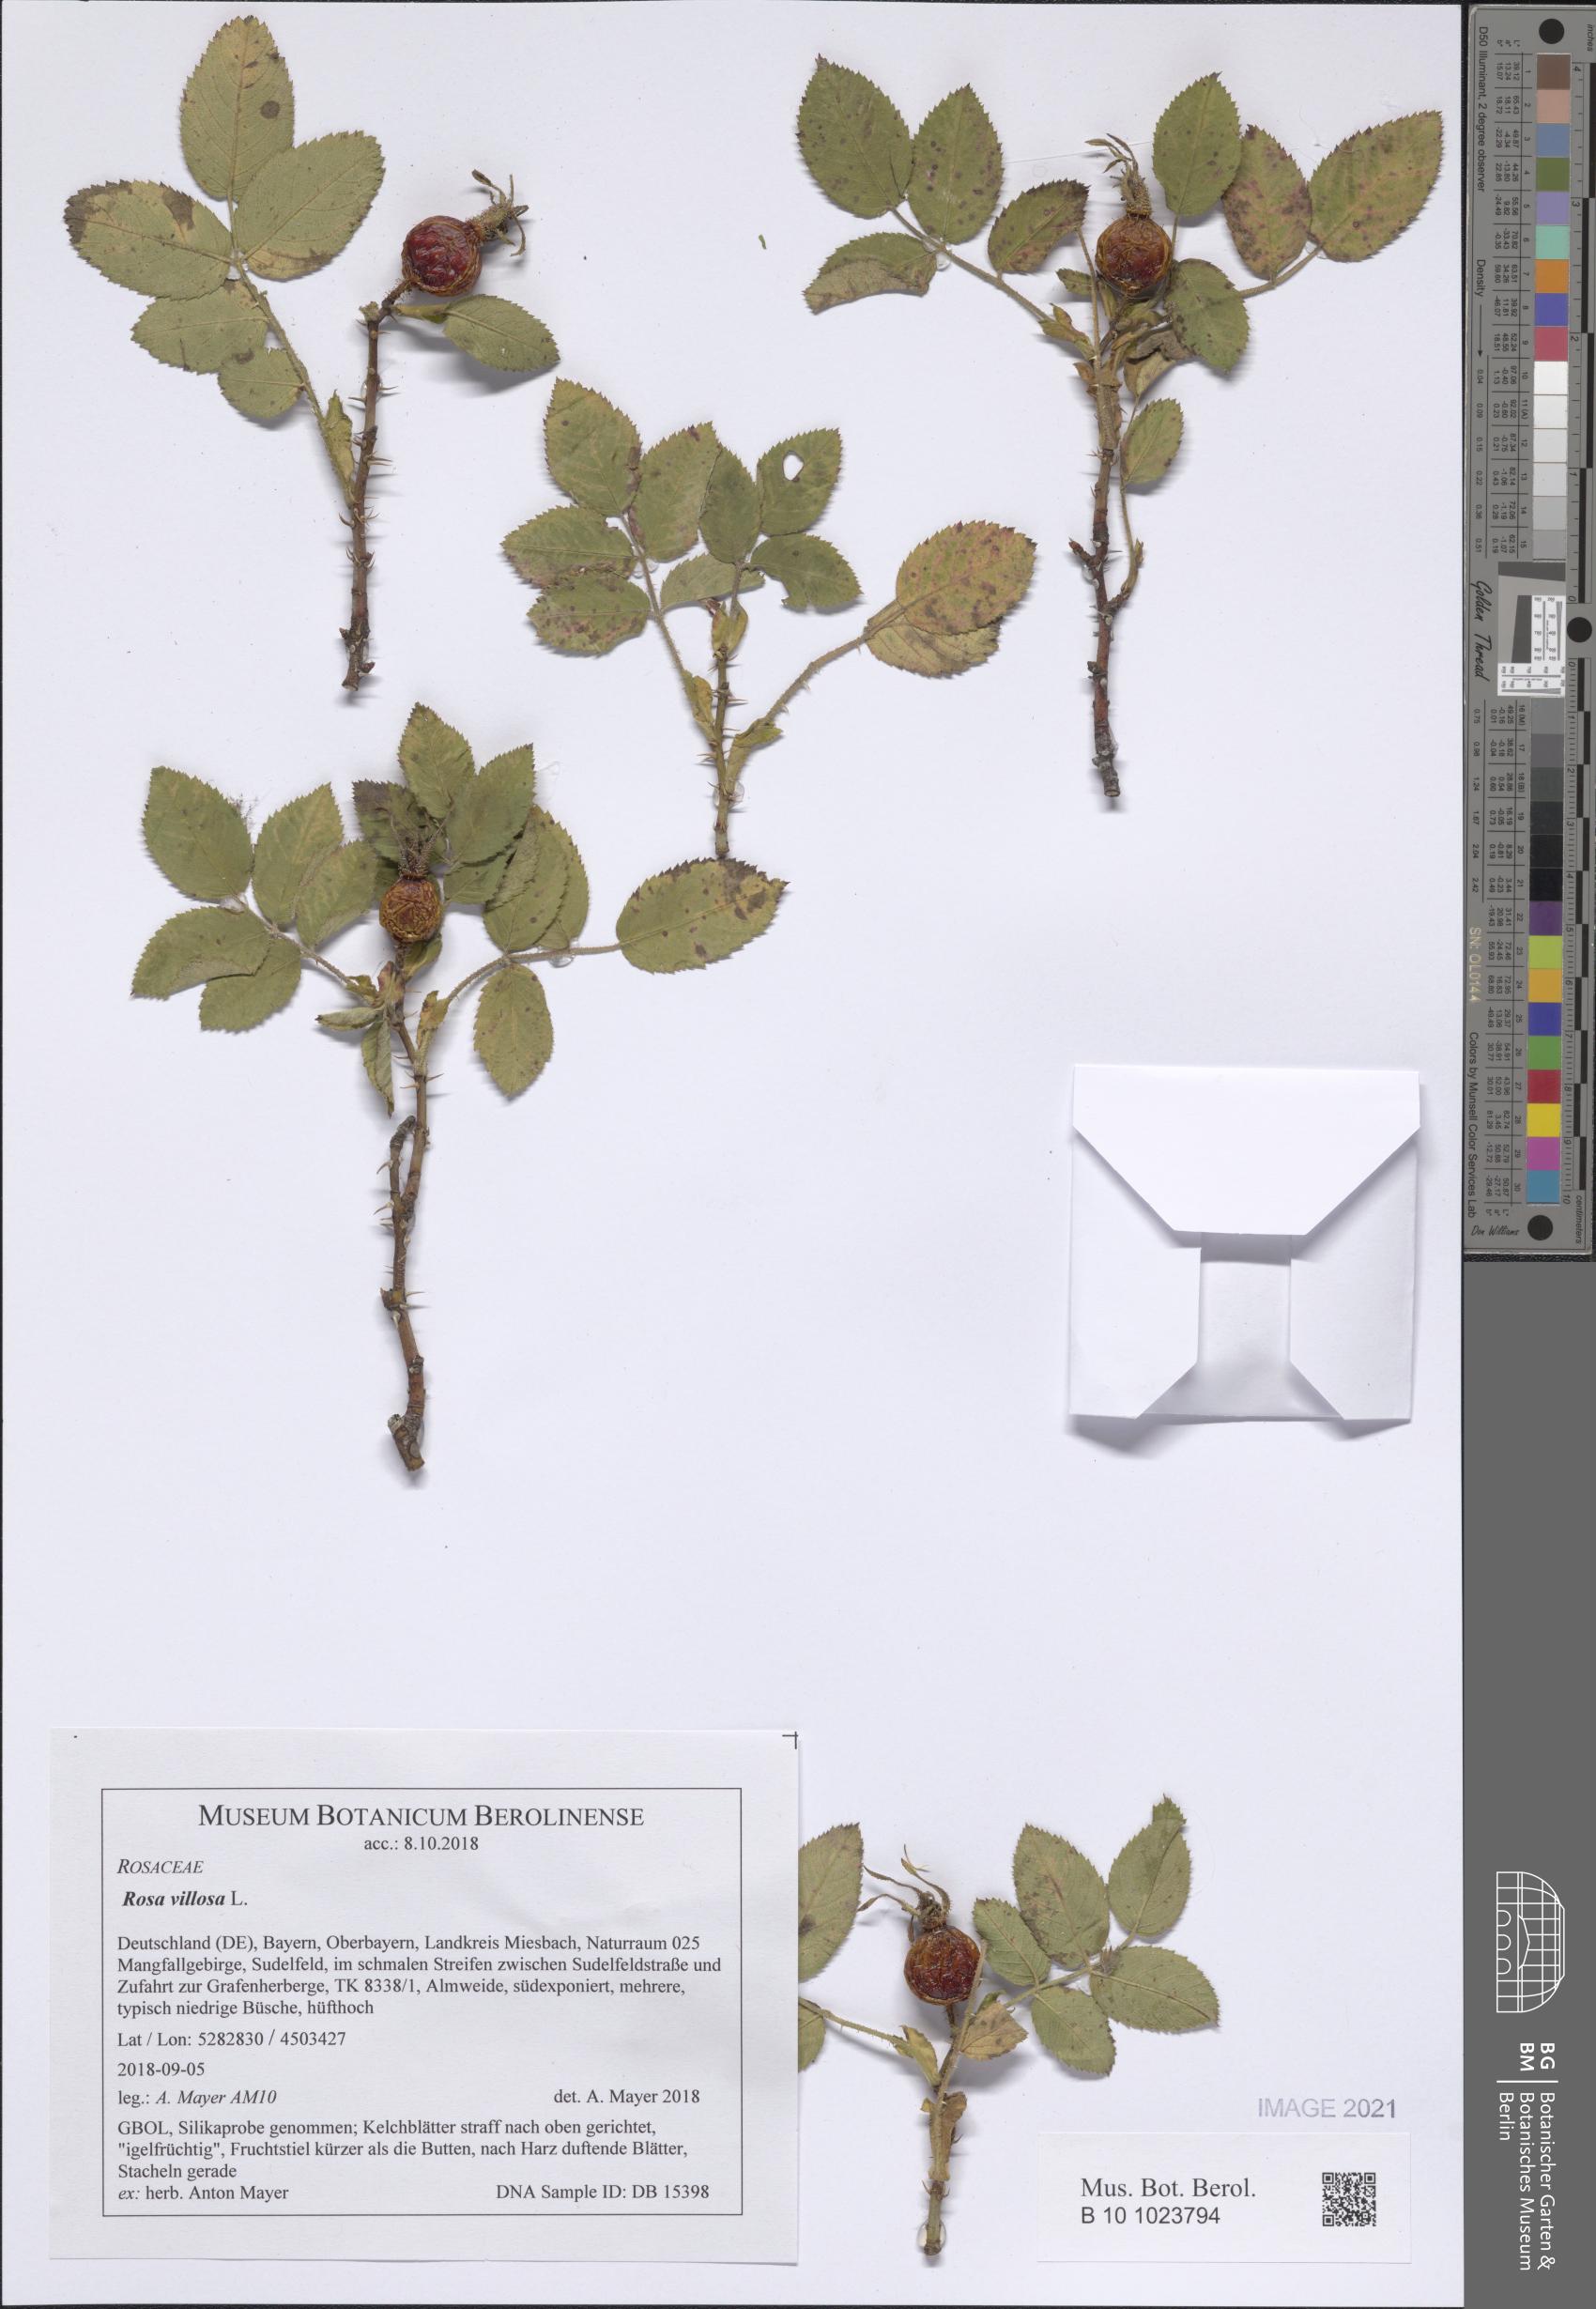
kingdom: Plantae
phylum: Tracheophyta
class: Magnoliopsida
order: Rosales
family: Rosaceae
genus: Rosa
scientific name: Rosa villosa
